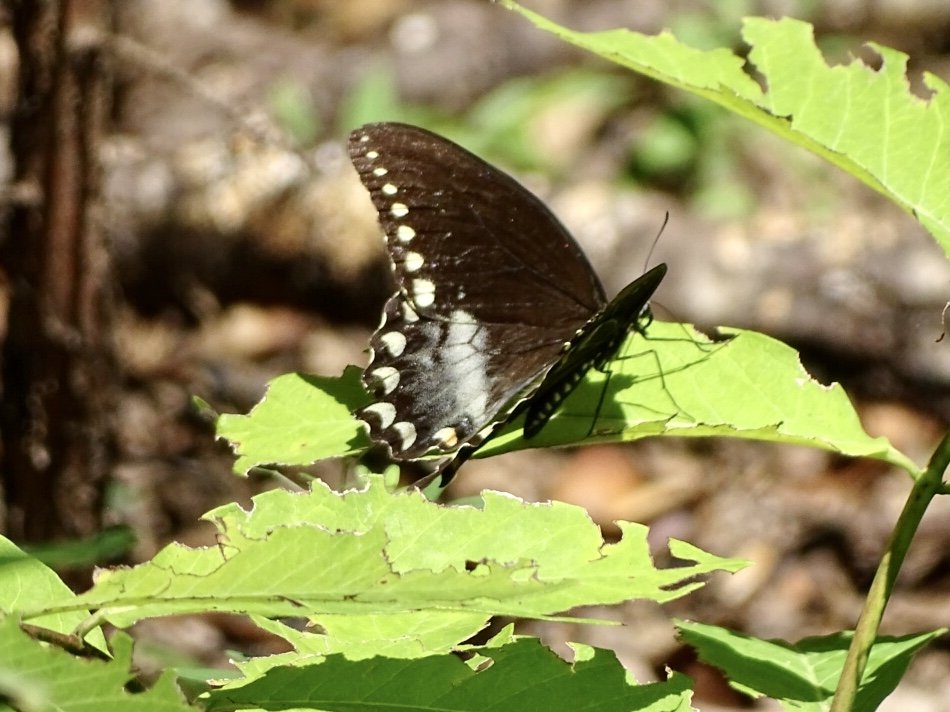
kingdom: Animalia
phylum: Arthropoda
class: Insecta
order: Lepidoptera
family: Papilionidae
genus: Pterourus
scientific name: Pterourus troilus
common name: Spicebush Swallowtail
